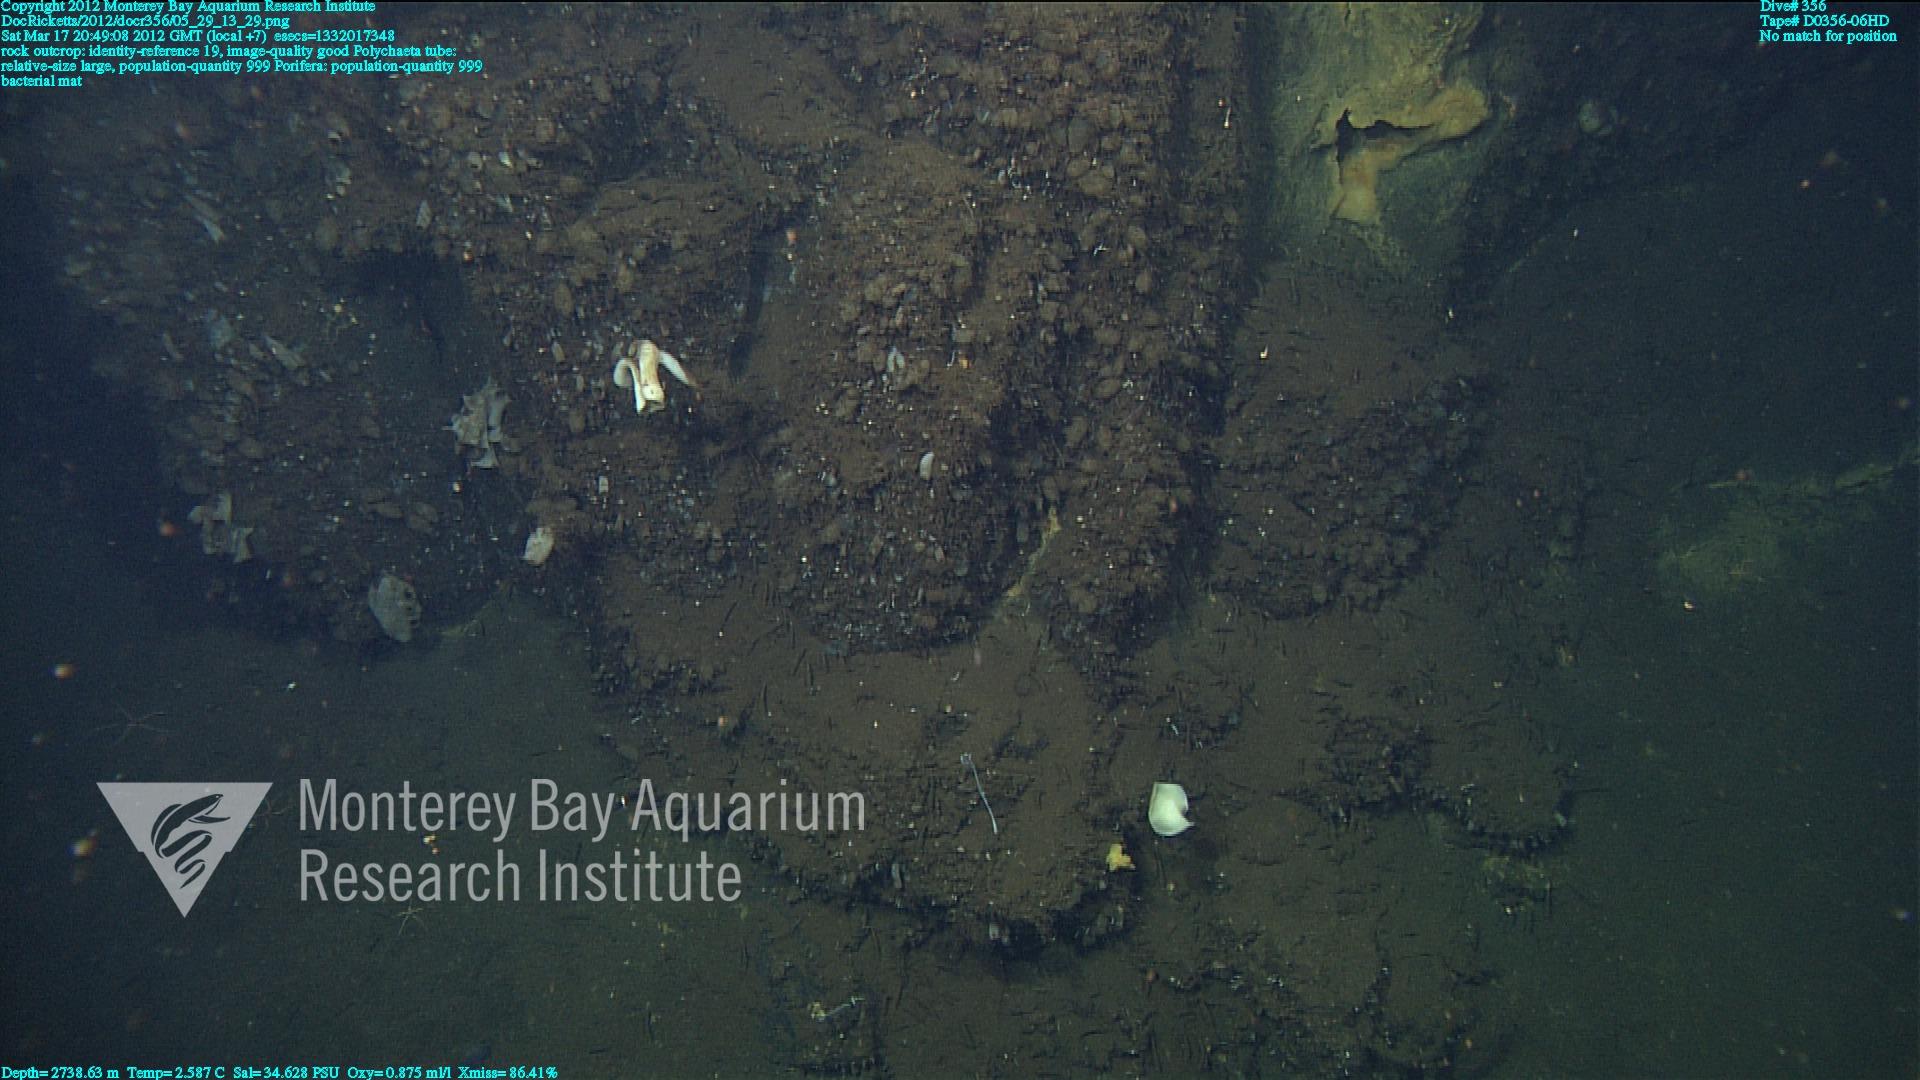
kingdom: Animalia
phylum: Porifera
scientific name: Porifera
